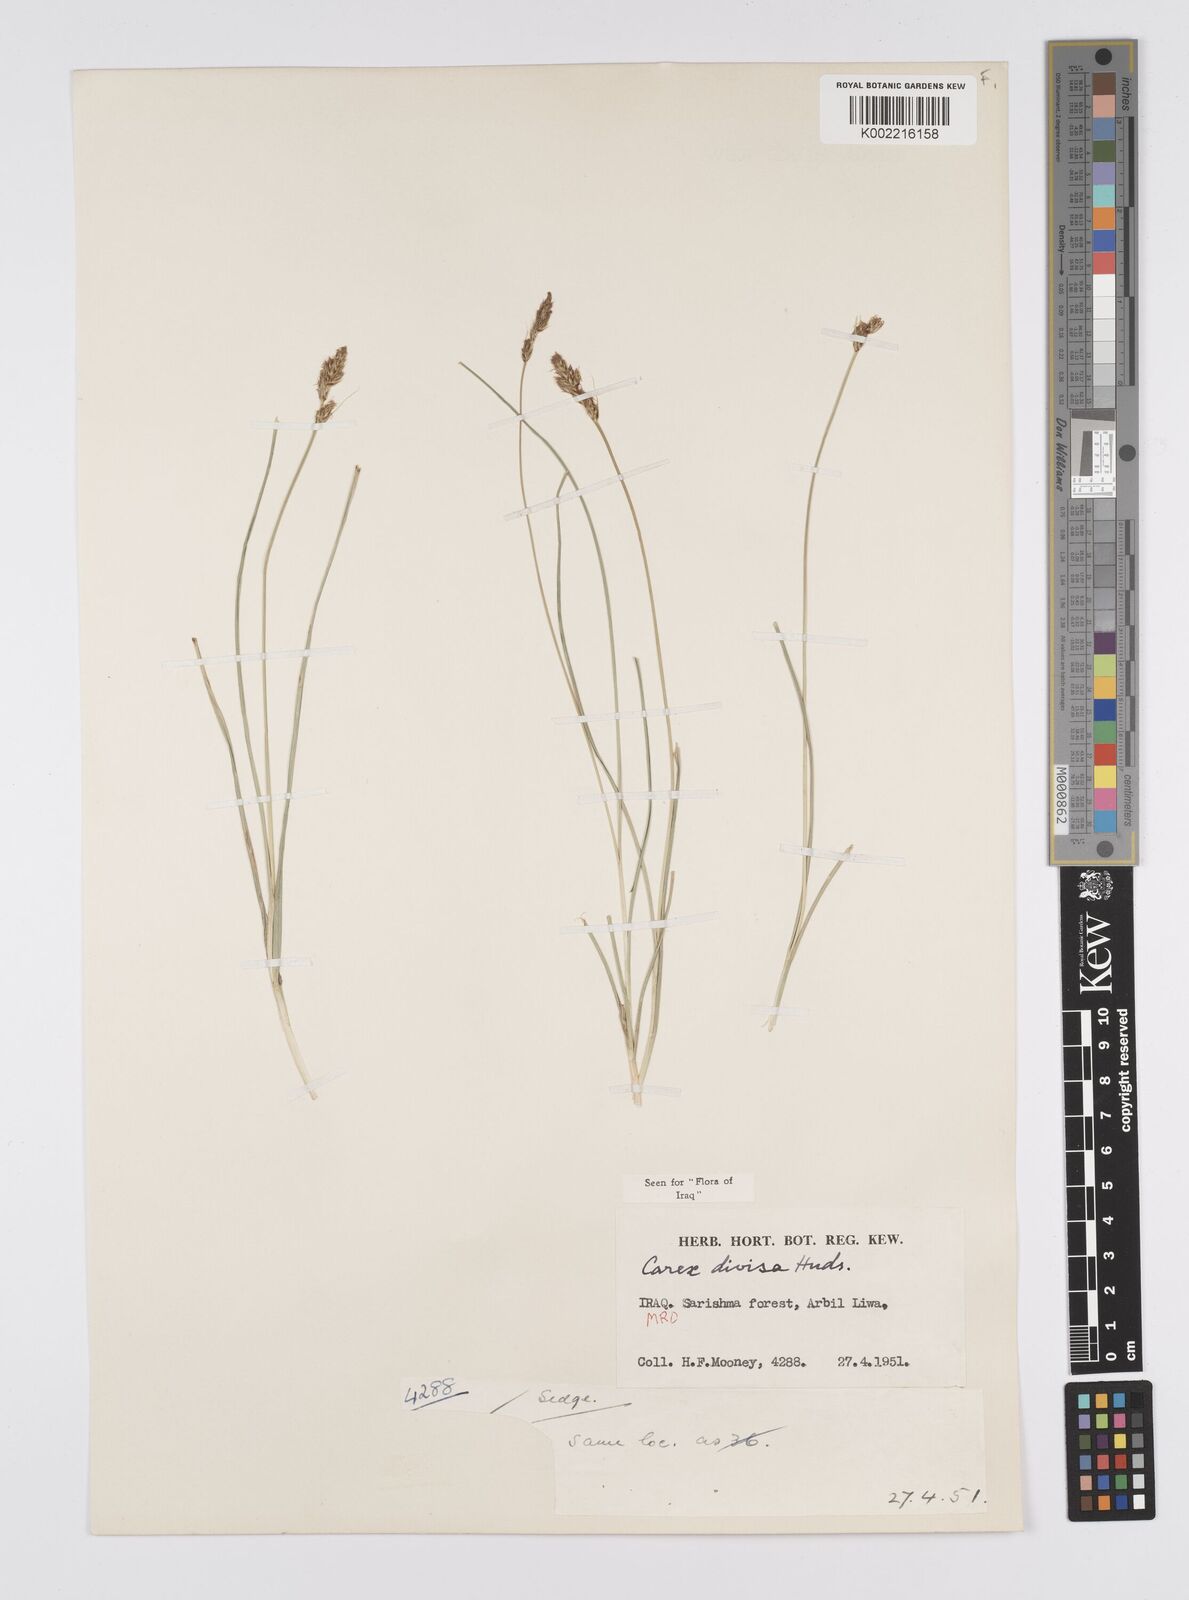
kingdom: Plantae
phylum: Tracheophyta
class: Liliopsida
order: Poales
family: Cyperaceae
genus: Carex
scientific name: Carex divisa
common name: Divided sedge
